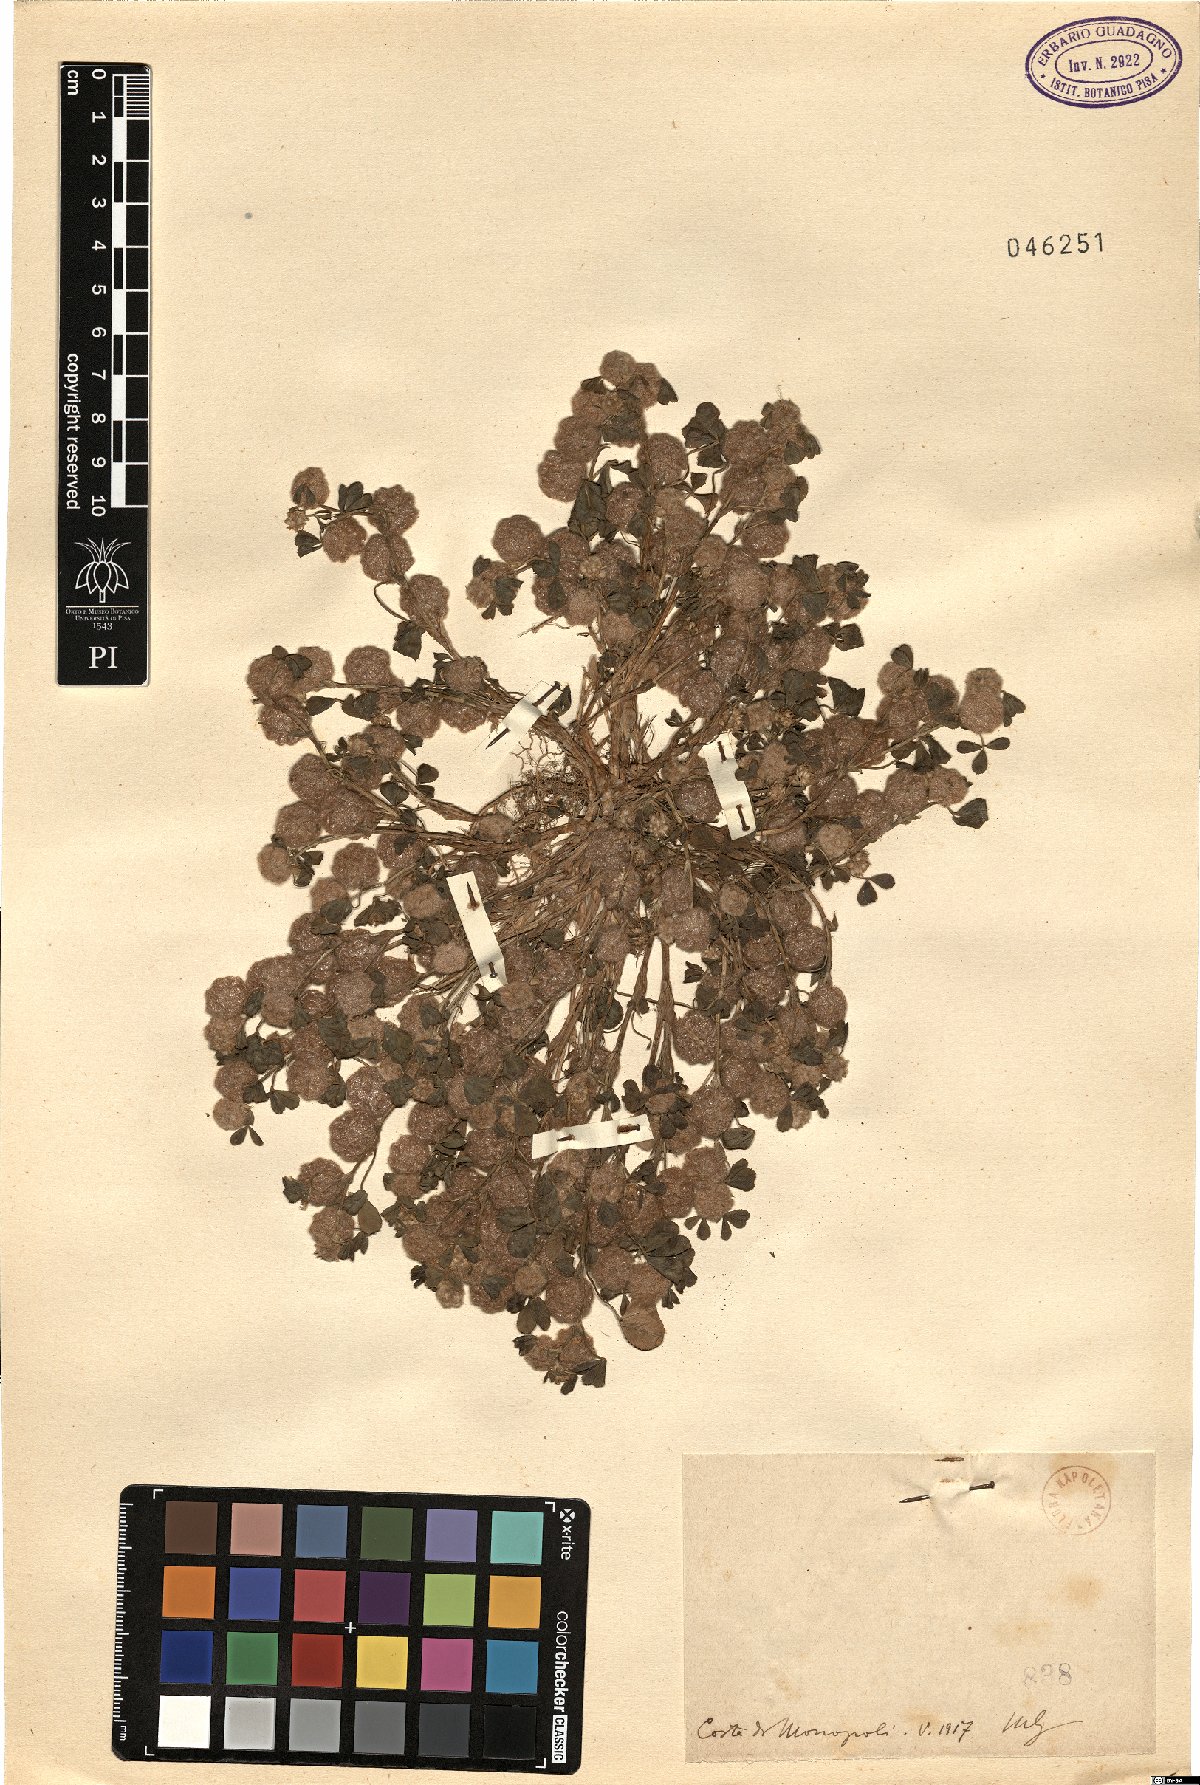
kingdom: Plantae
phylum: Tracheophyta
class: Magnoliopsida
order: Fabales
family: Fabaceae
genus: Trifolium
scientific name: Trifolium
